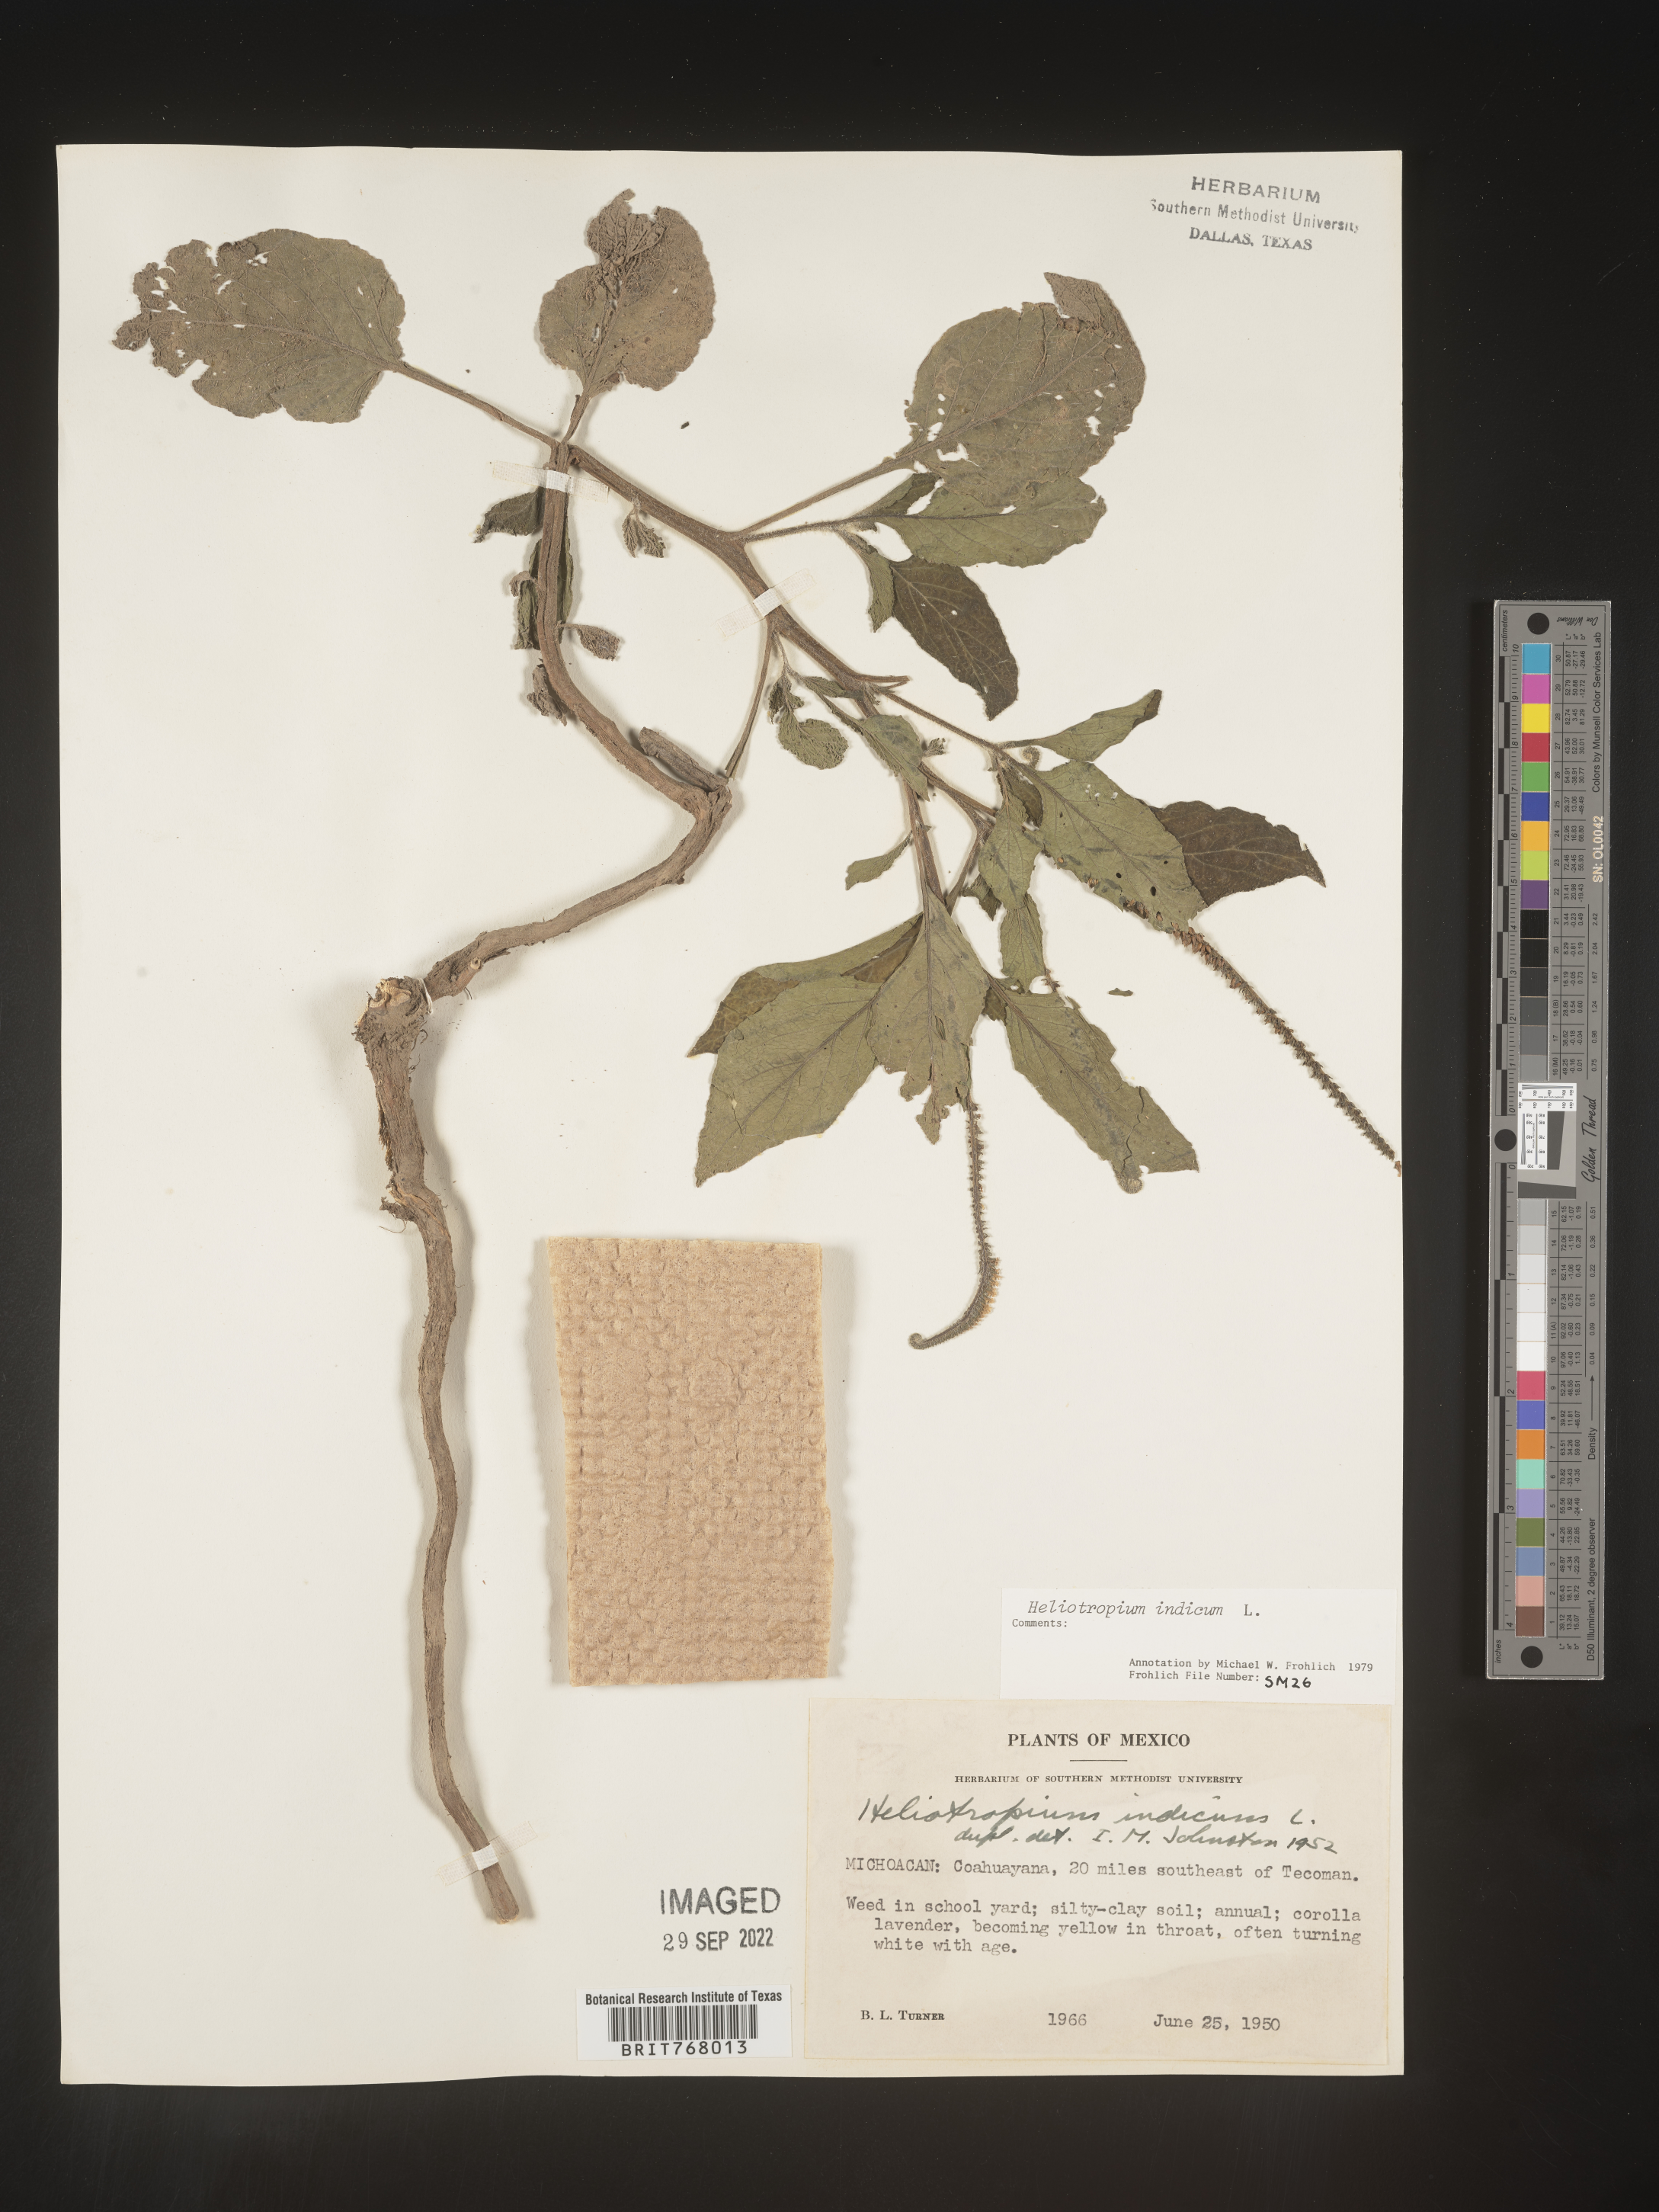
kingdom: Plantae
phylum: Tracheophyta
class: Magnoliopsida
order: Boraginales
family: Heliotropiaceae
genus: Heliotropium
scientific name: Heliotropium
